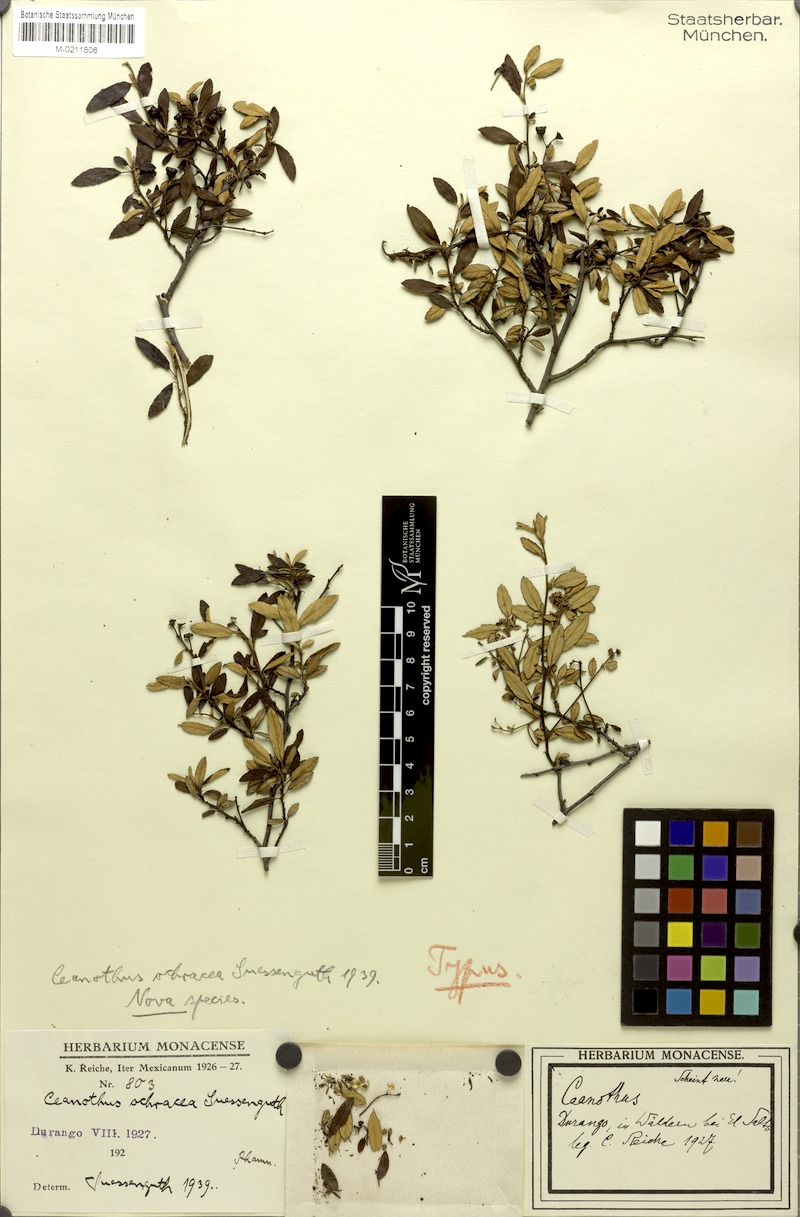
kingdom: Plantae
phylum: Tracheophyta
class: Magnoliopsida
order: Rosales
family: Rhamnaceae
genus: Ceanothus
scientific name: Ceanothus ochraceus
